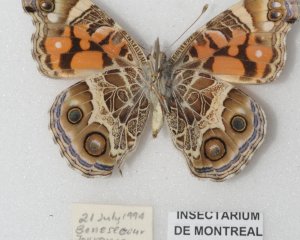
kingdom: Animalia
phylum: Arthropoda
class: Insecta
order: Lepidoptera
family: Nymphalidae
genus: Vanessa
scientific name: Vanessa virginiensis
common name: American Lady
